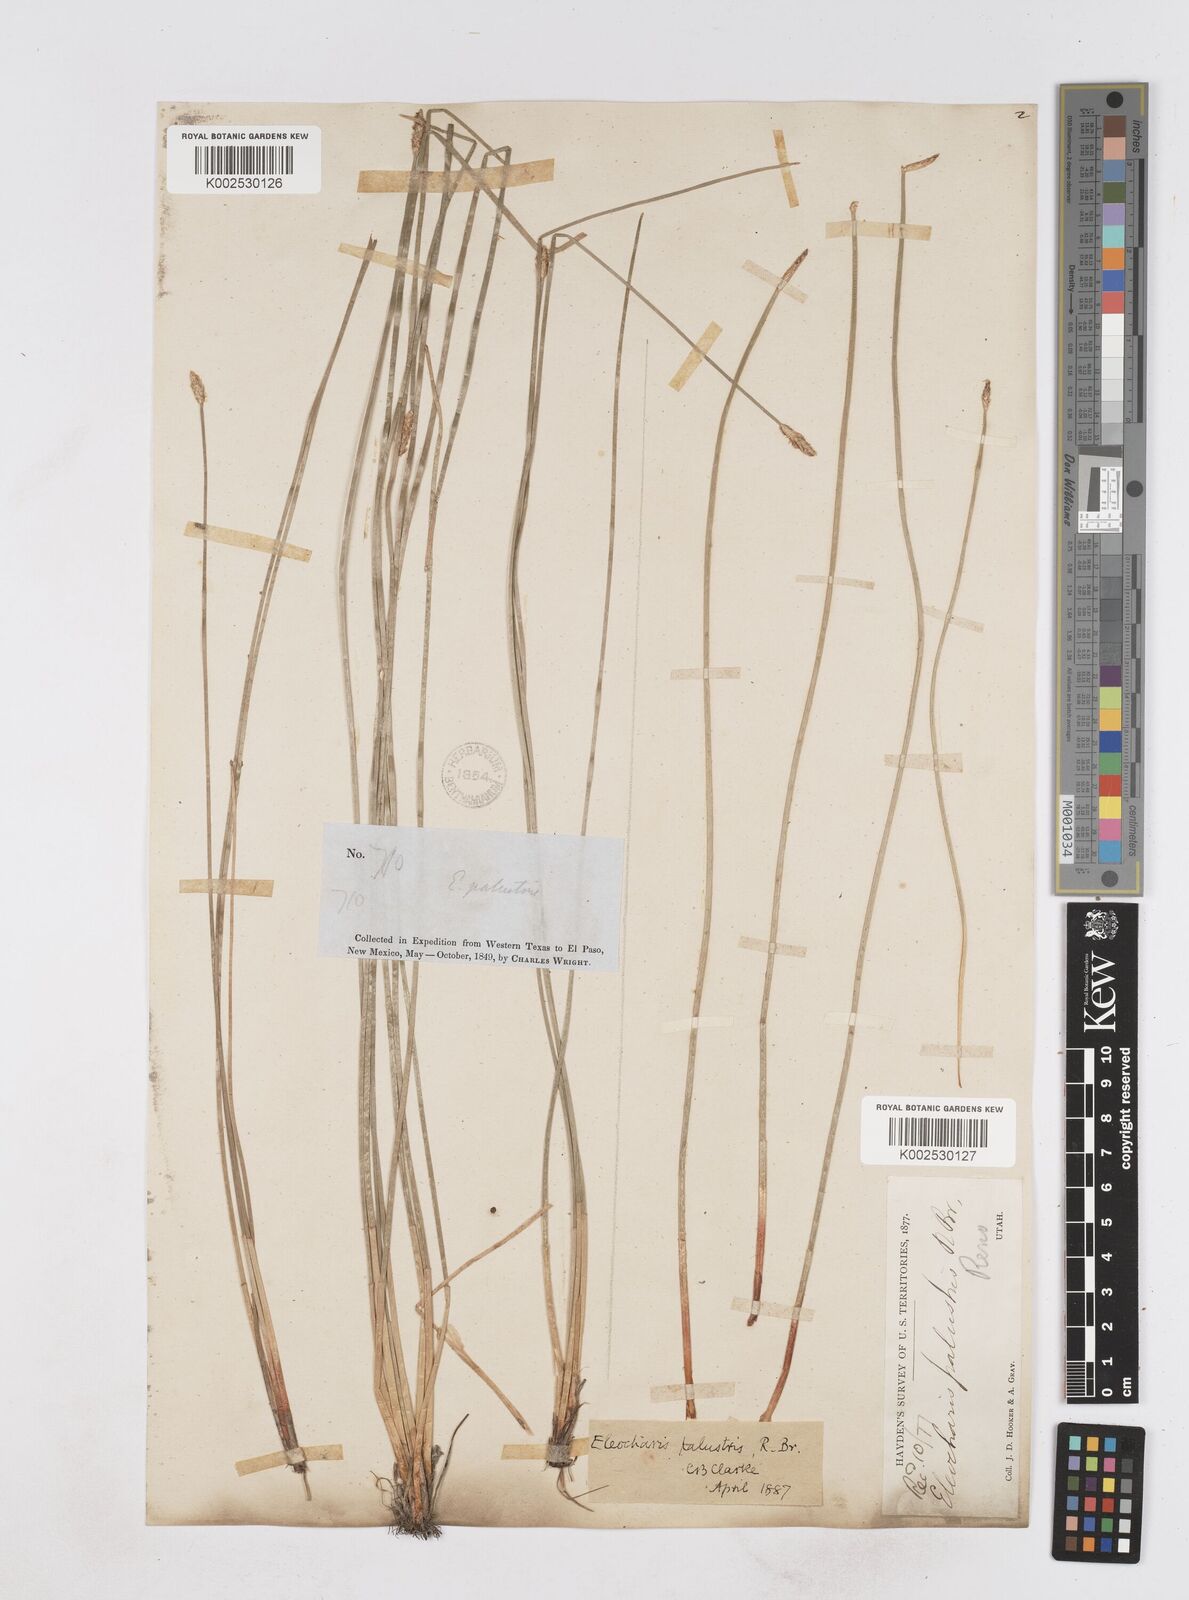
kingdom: Plantae
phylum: Tracheophyta
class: Liliopsida
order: Poales
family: Cyperaceae
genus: Eleocharis
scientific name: Eleocharis macrostachya
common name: Pale spikerush
